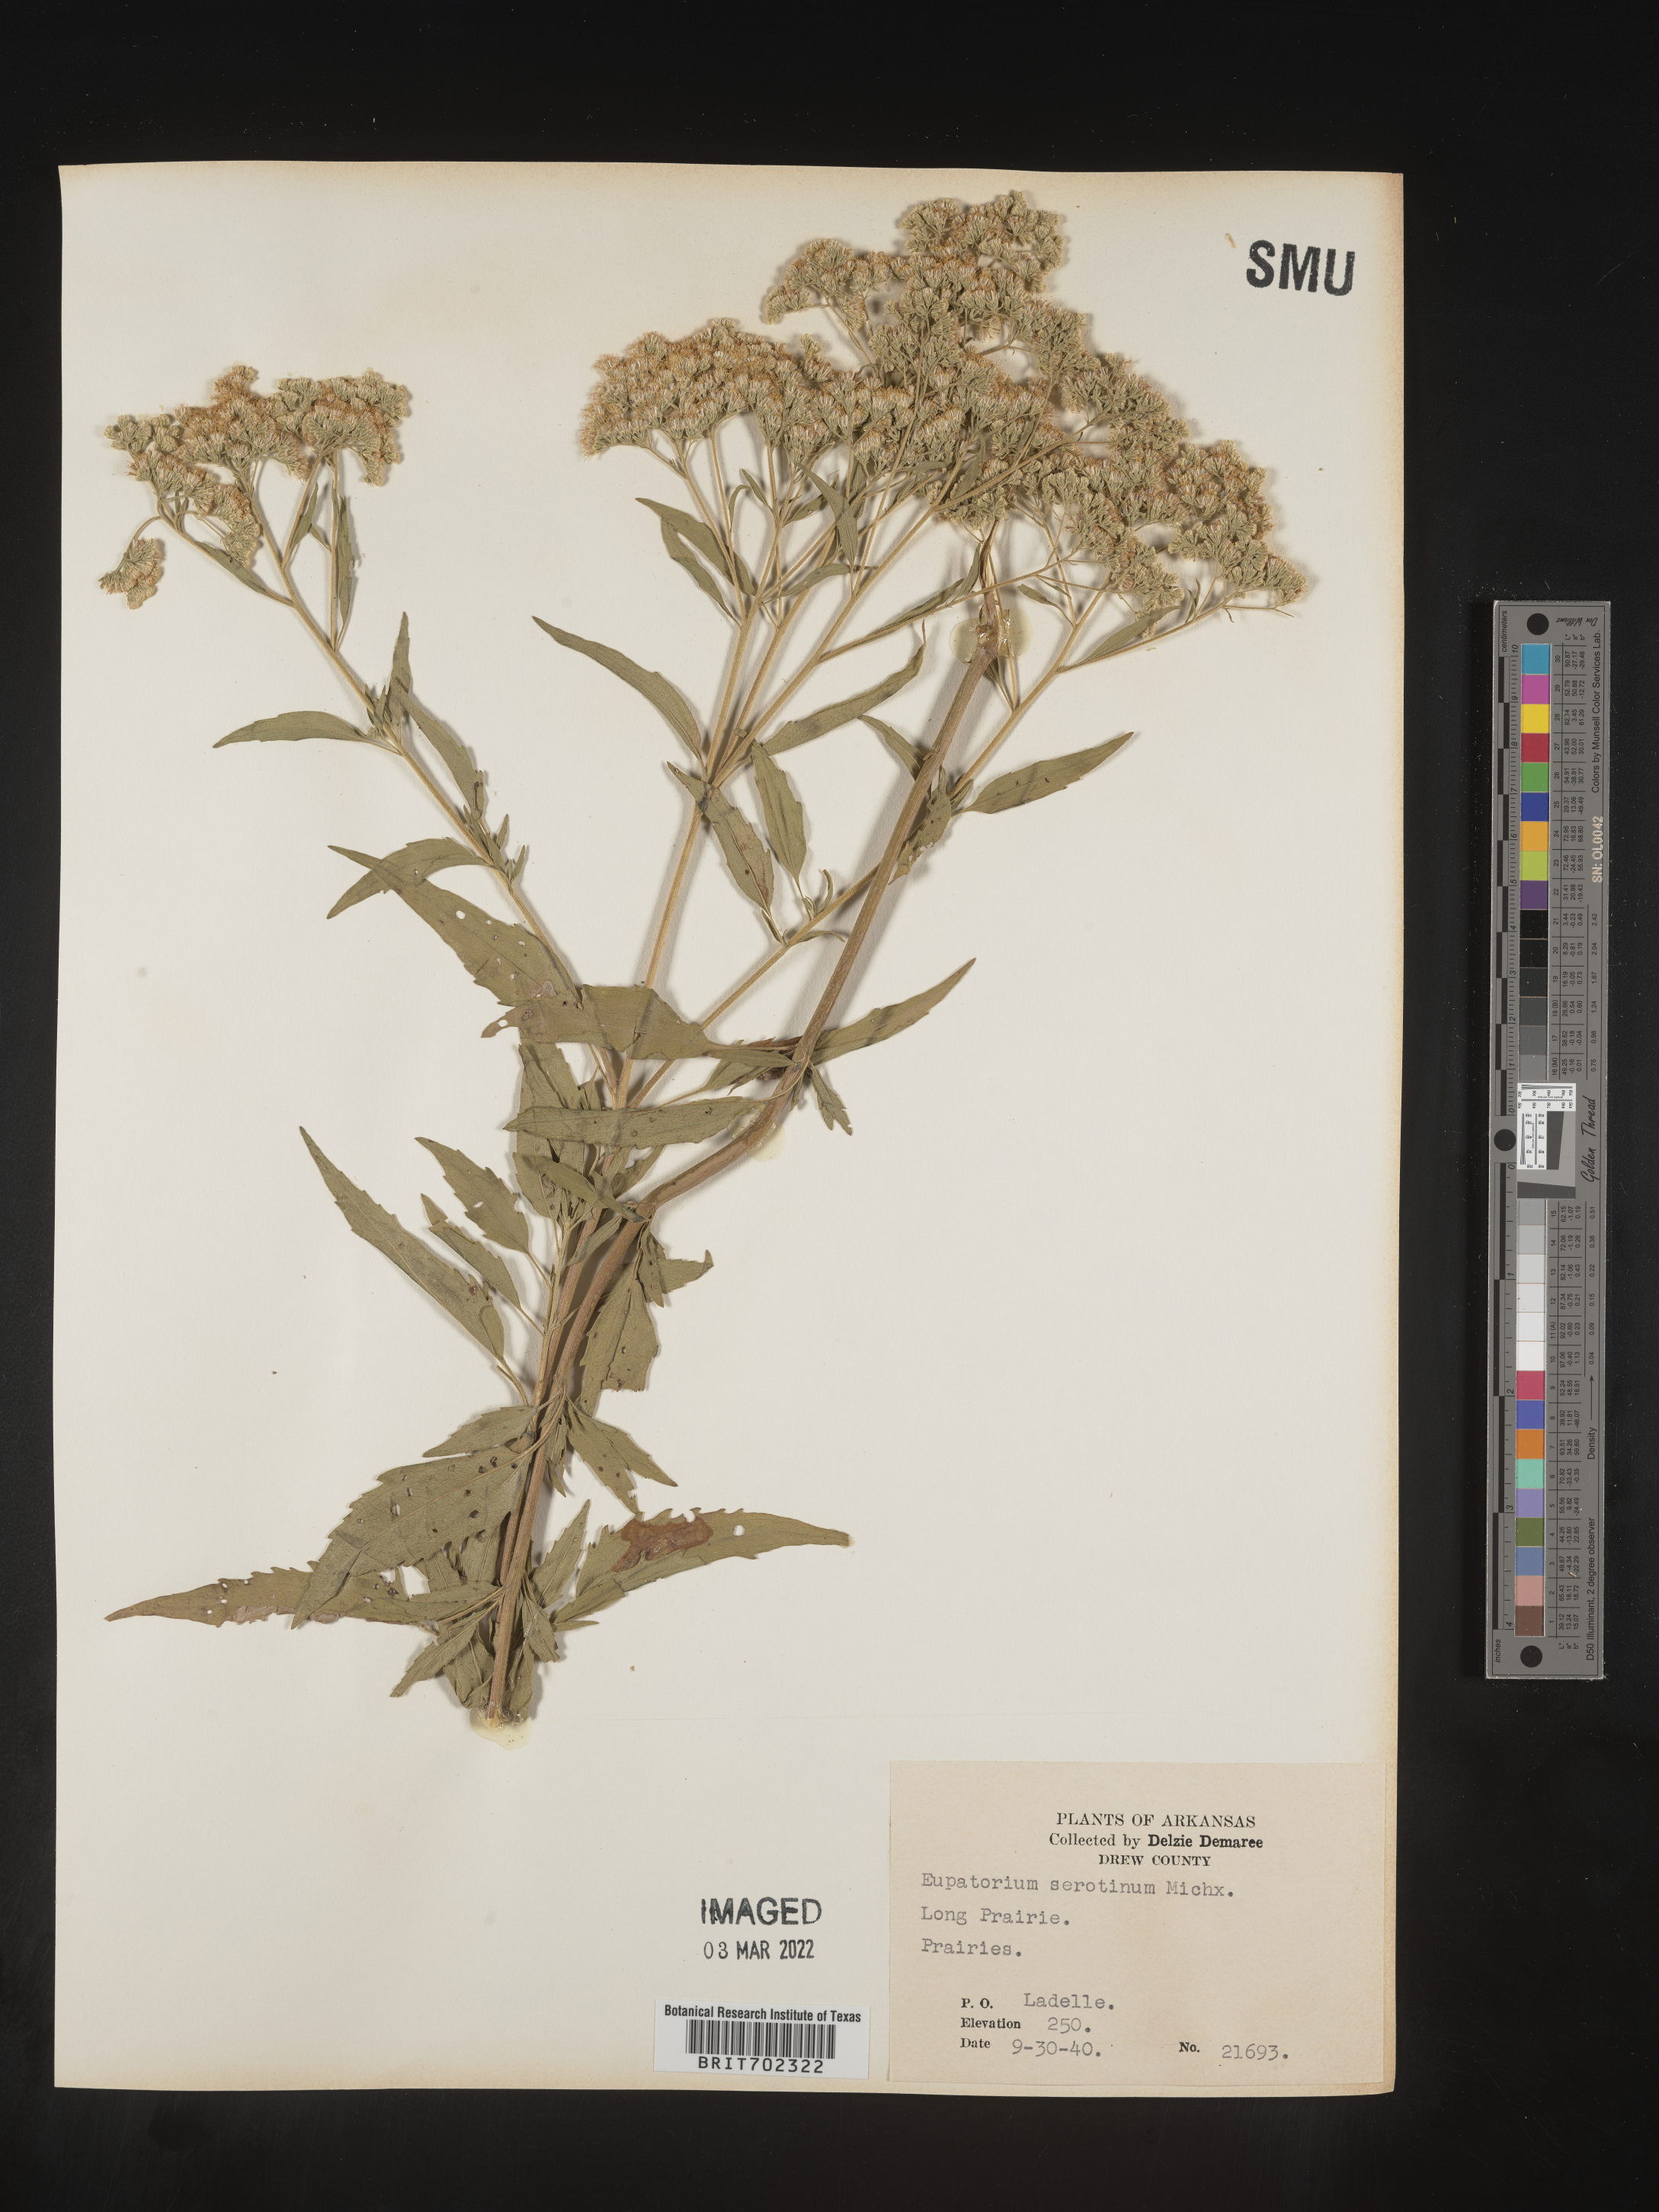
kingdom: Plantae
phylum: Tracheophyta
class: Magnoliopsida
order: Asterales
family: Asteraceae
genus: Eupatorium
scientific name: Eupatorium serotinum
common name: Late boneset
